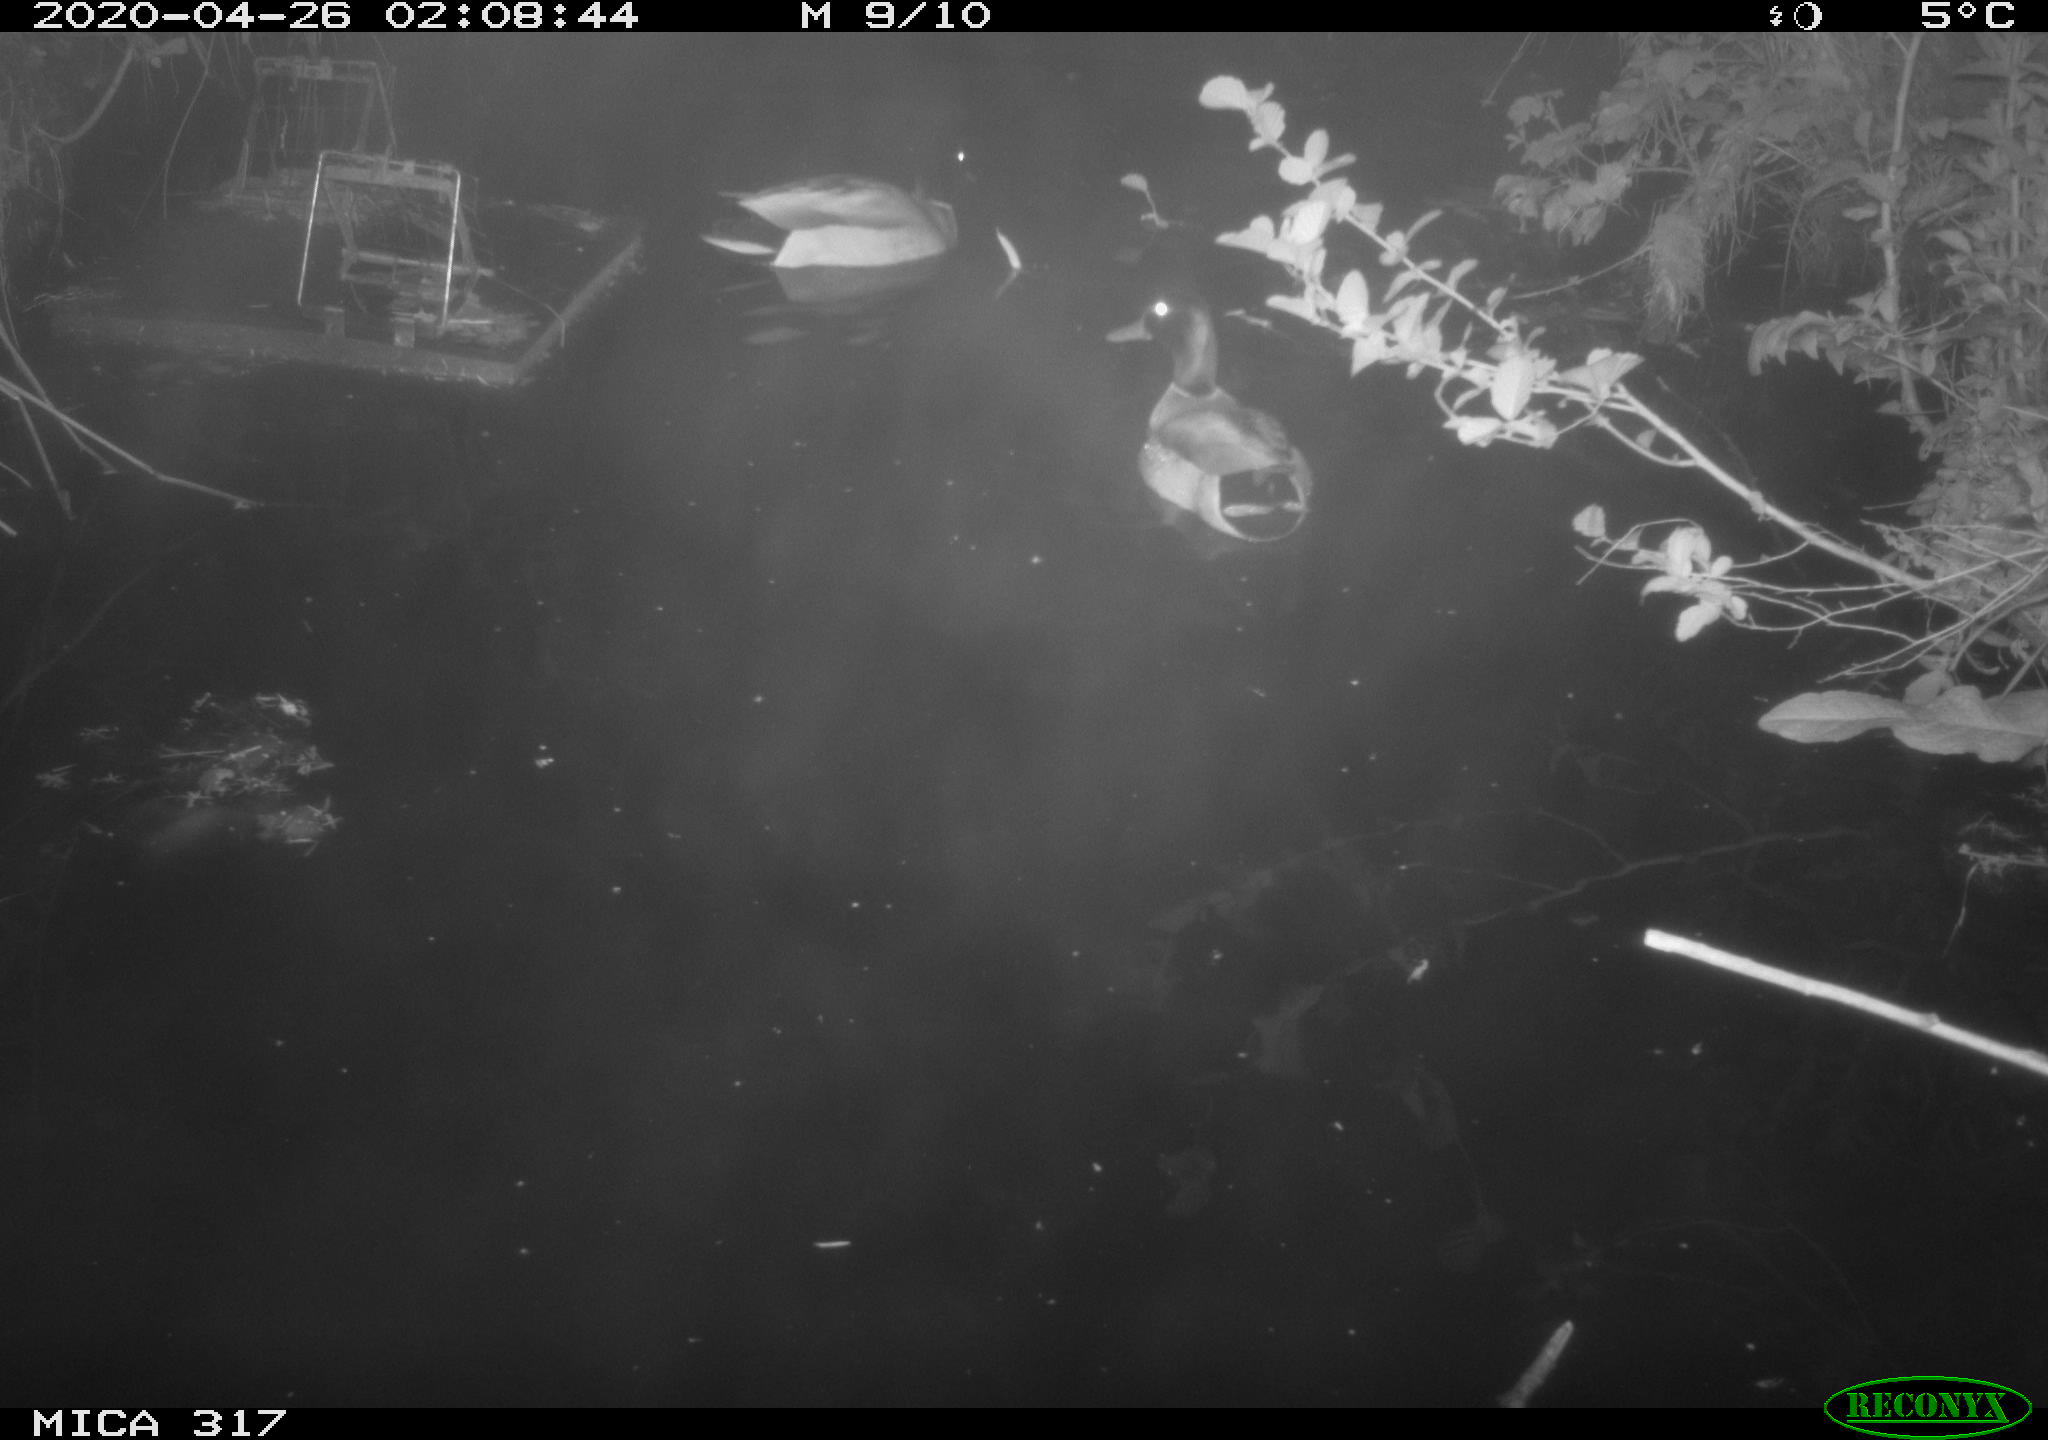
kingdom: Animalia
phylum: Chordata
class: Aves
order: Anseriformes
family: Anatidae
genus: Anas
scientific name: Anas platyrhynchos
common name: Mallard
